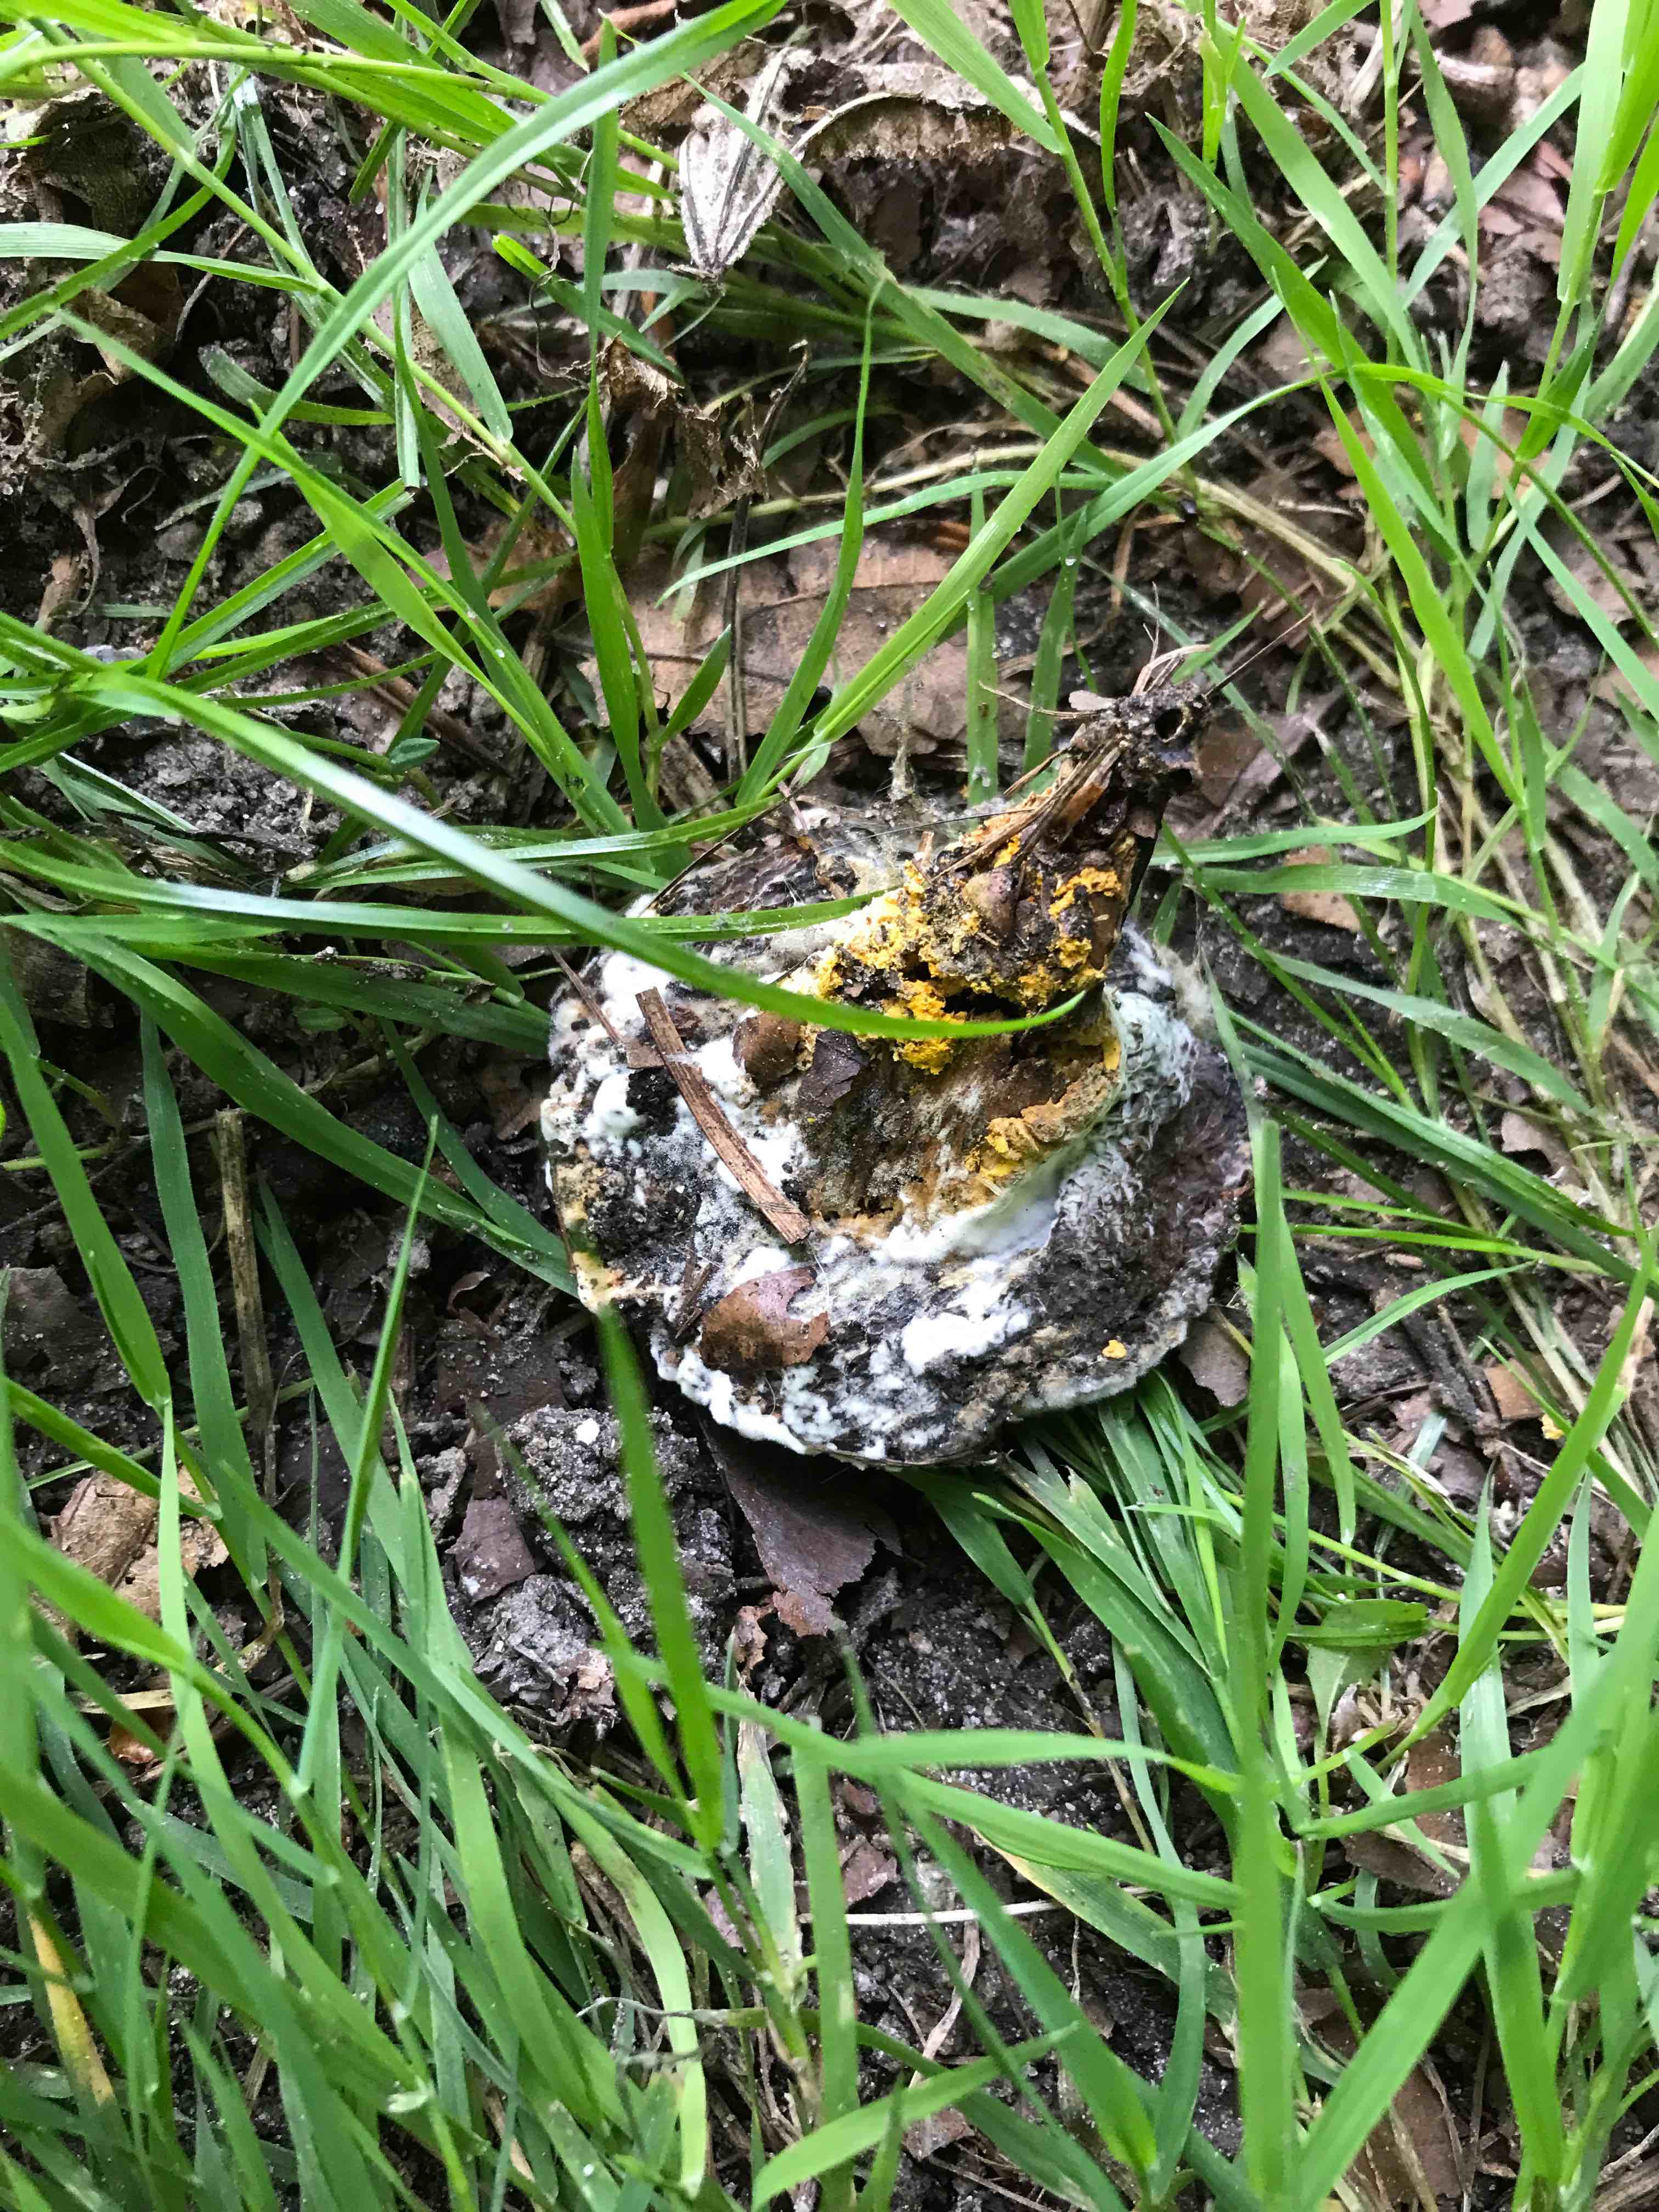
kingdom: Fungi
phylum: Ascomycota
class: Sordariomycetes
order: Hypocreales
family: Hypocreaceae
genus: Hypomyces
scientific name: Hypomyces microspermus
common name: dværgrørhat-snylteskorpe
